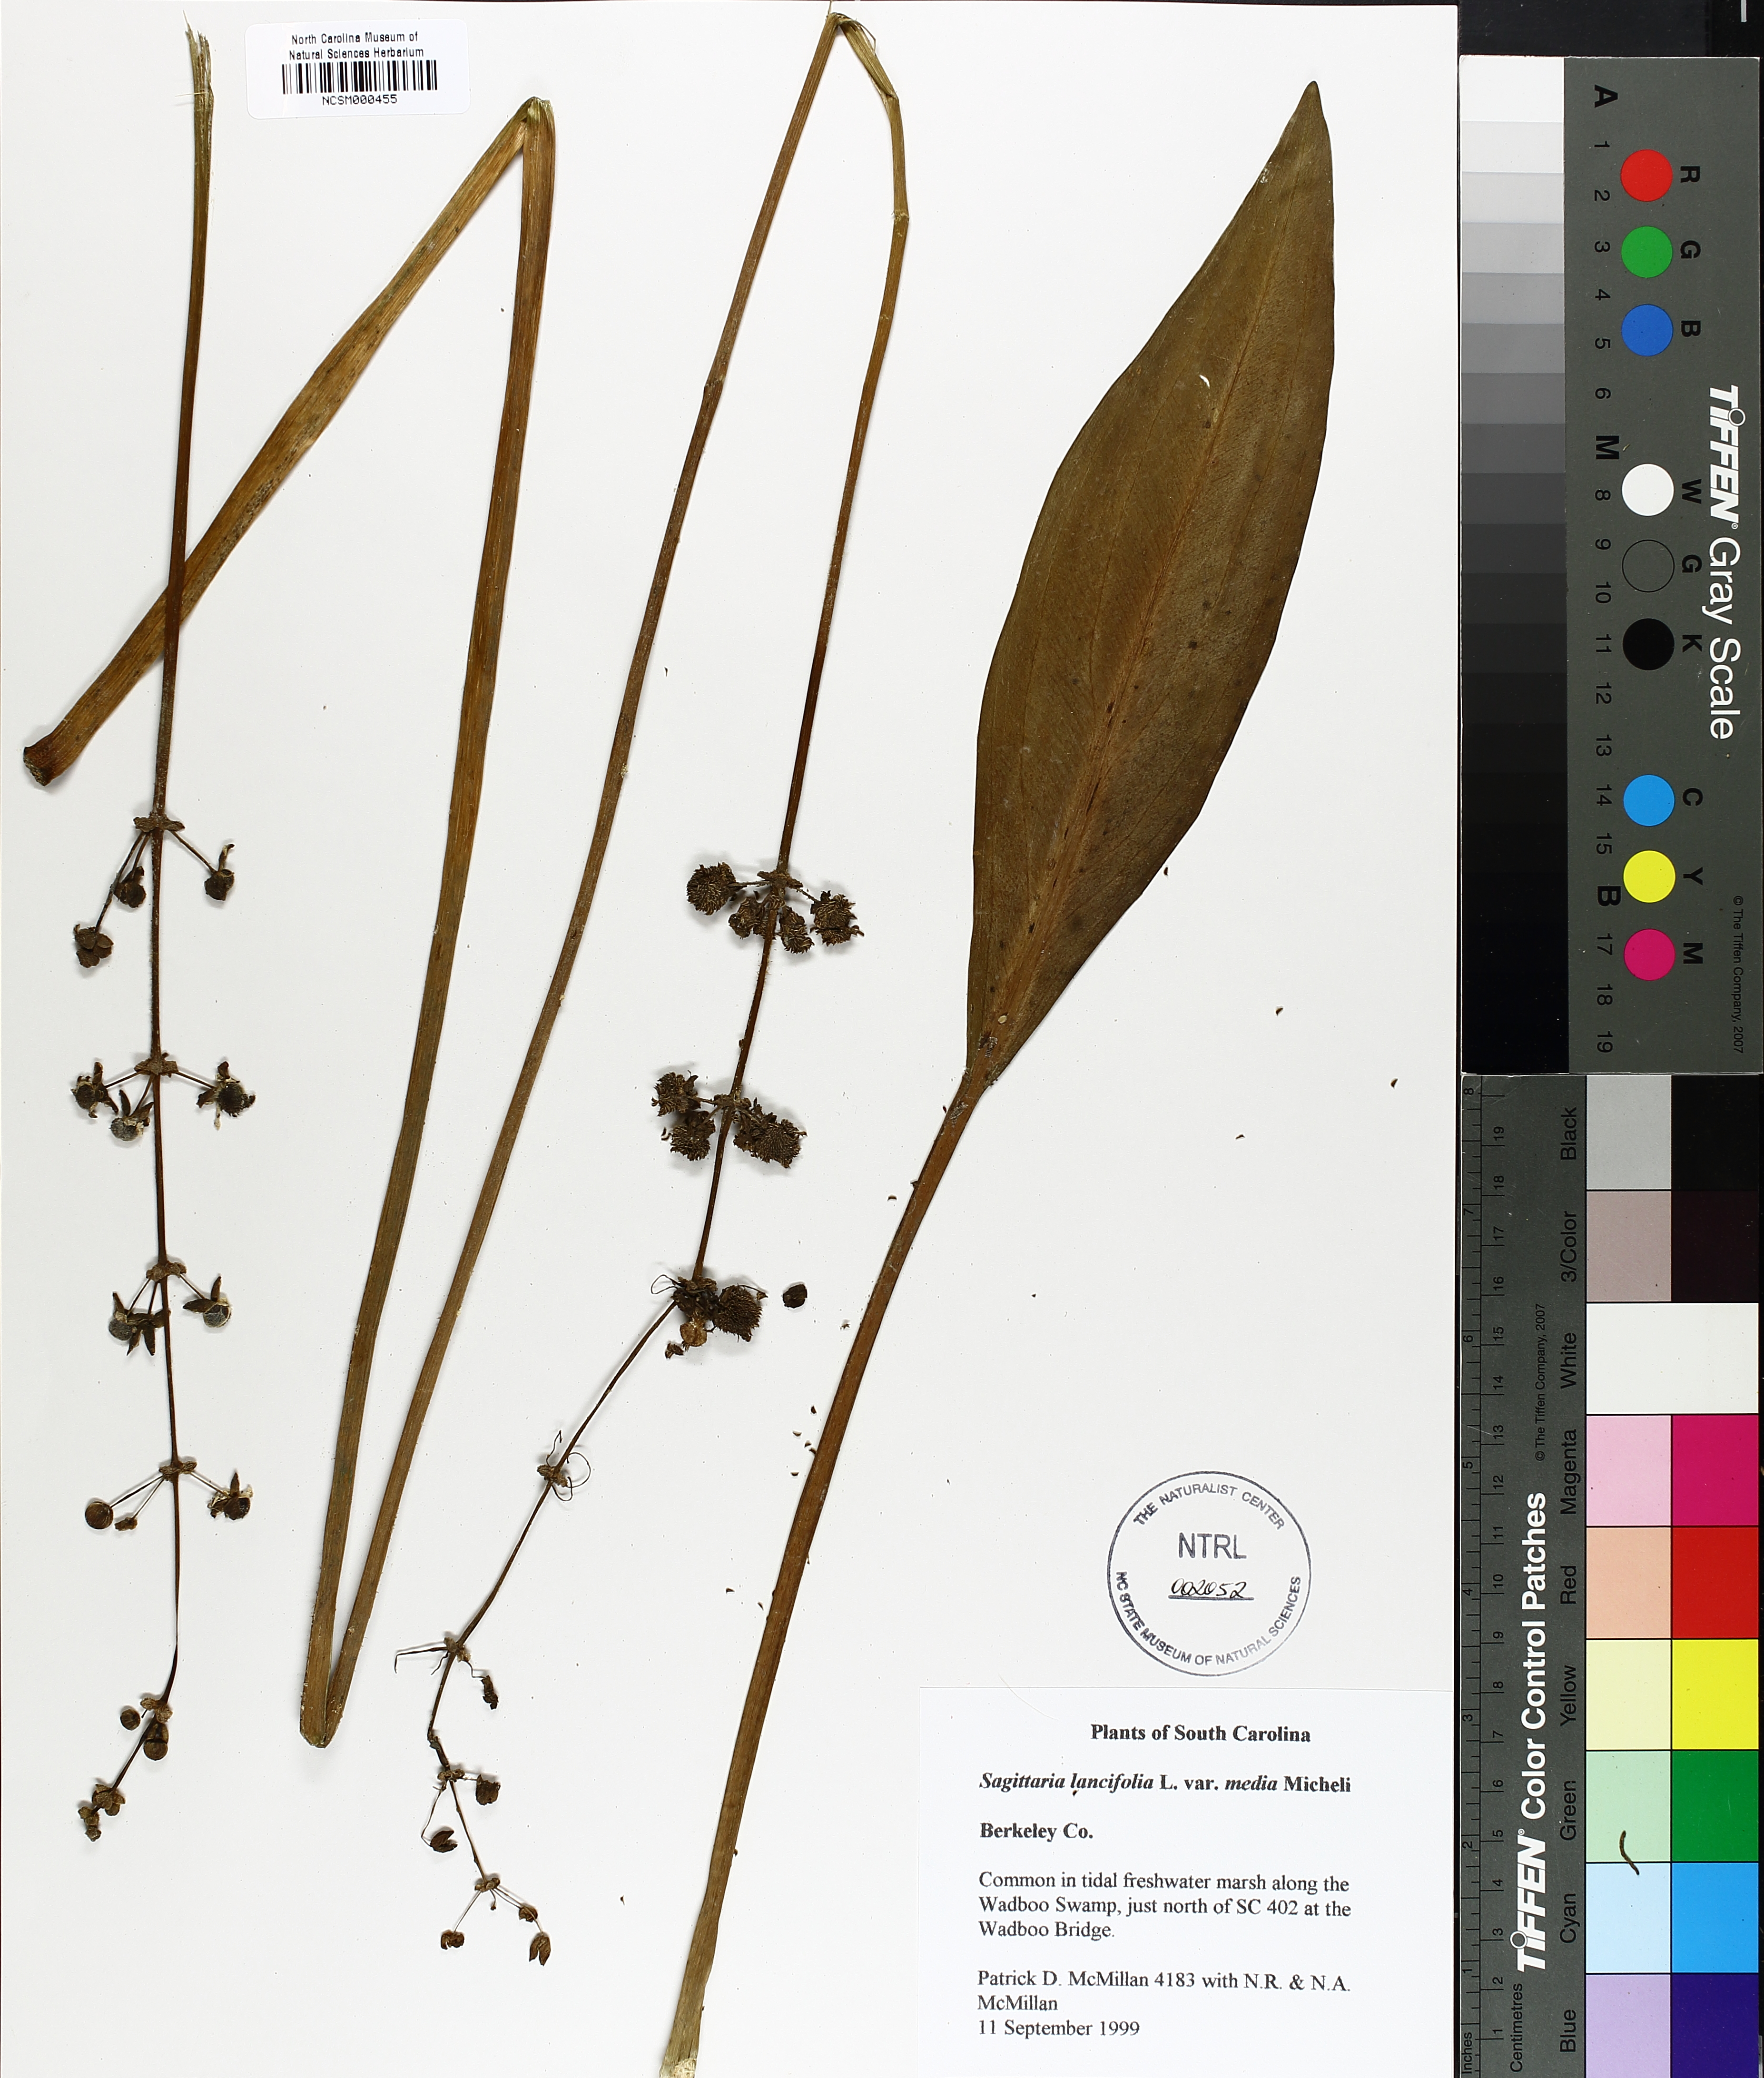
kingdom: Plantae
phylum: Tracheophyta
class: Liliopsida
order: Alismatales
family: Alismataceae
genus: Sagittaria
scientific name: Sagittaria lancifolia
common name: Lance-leaf arrowhead
